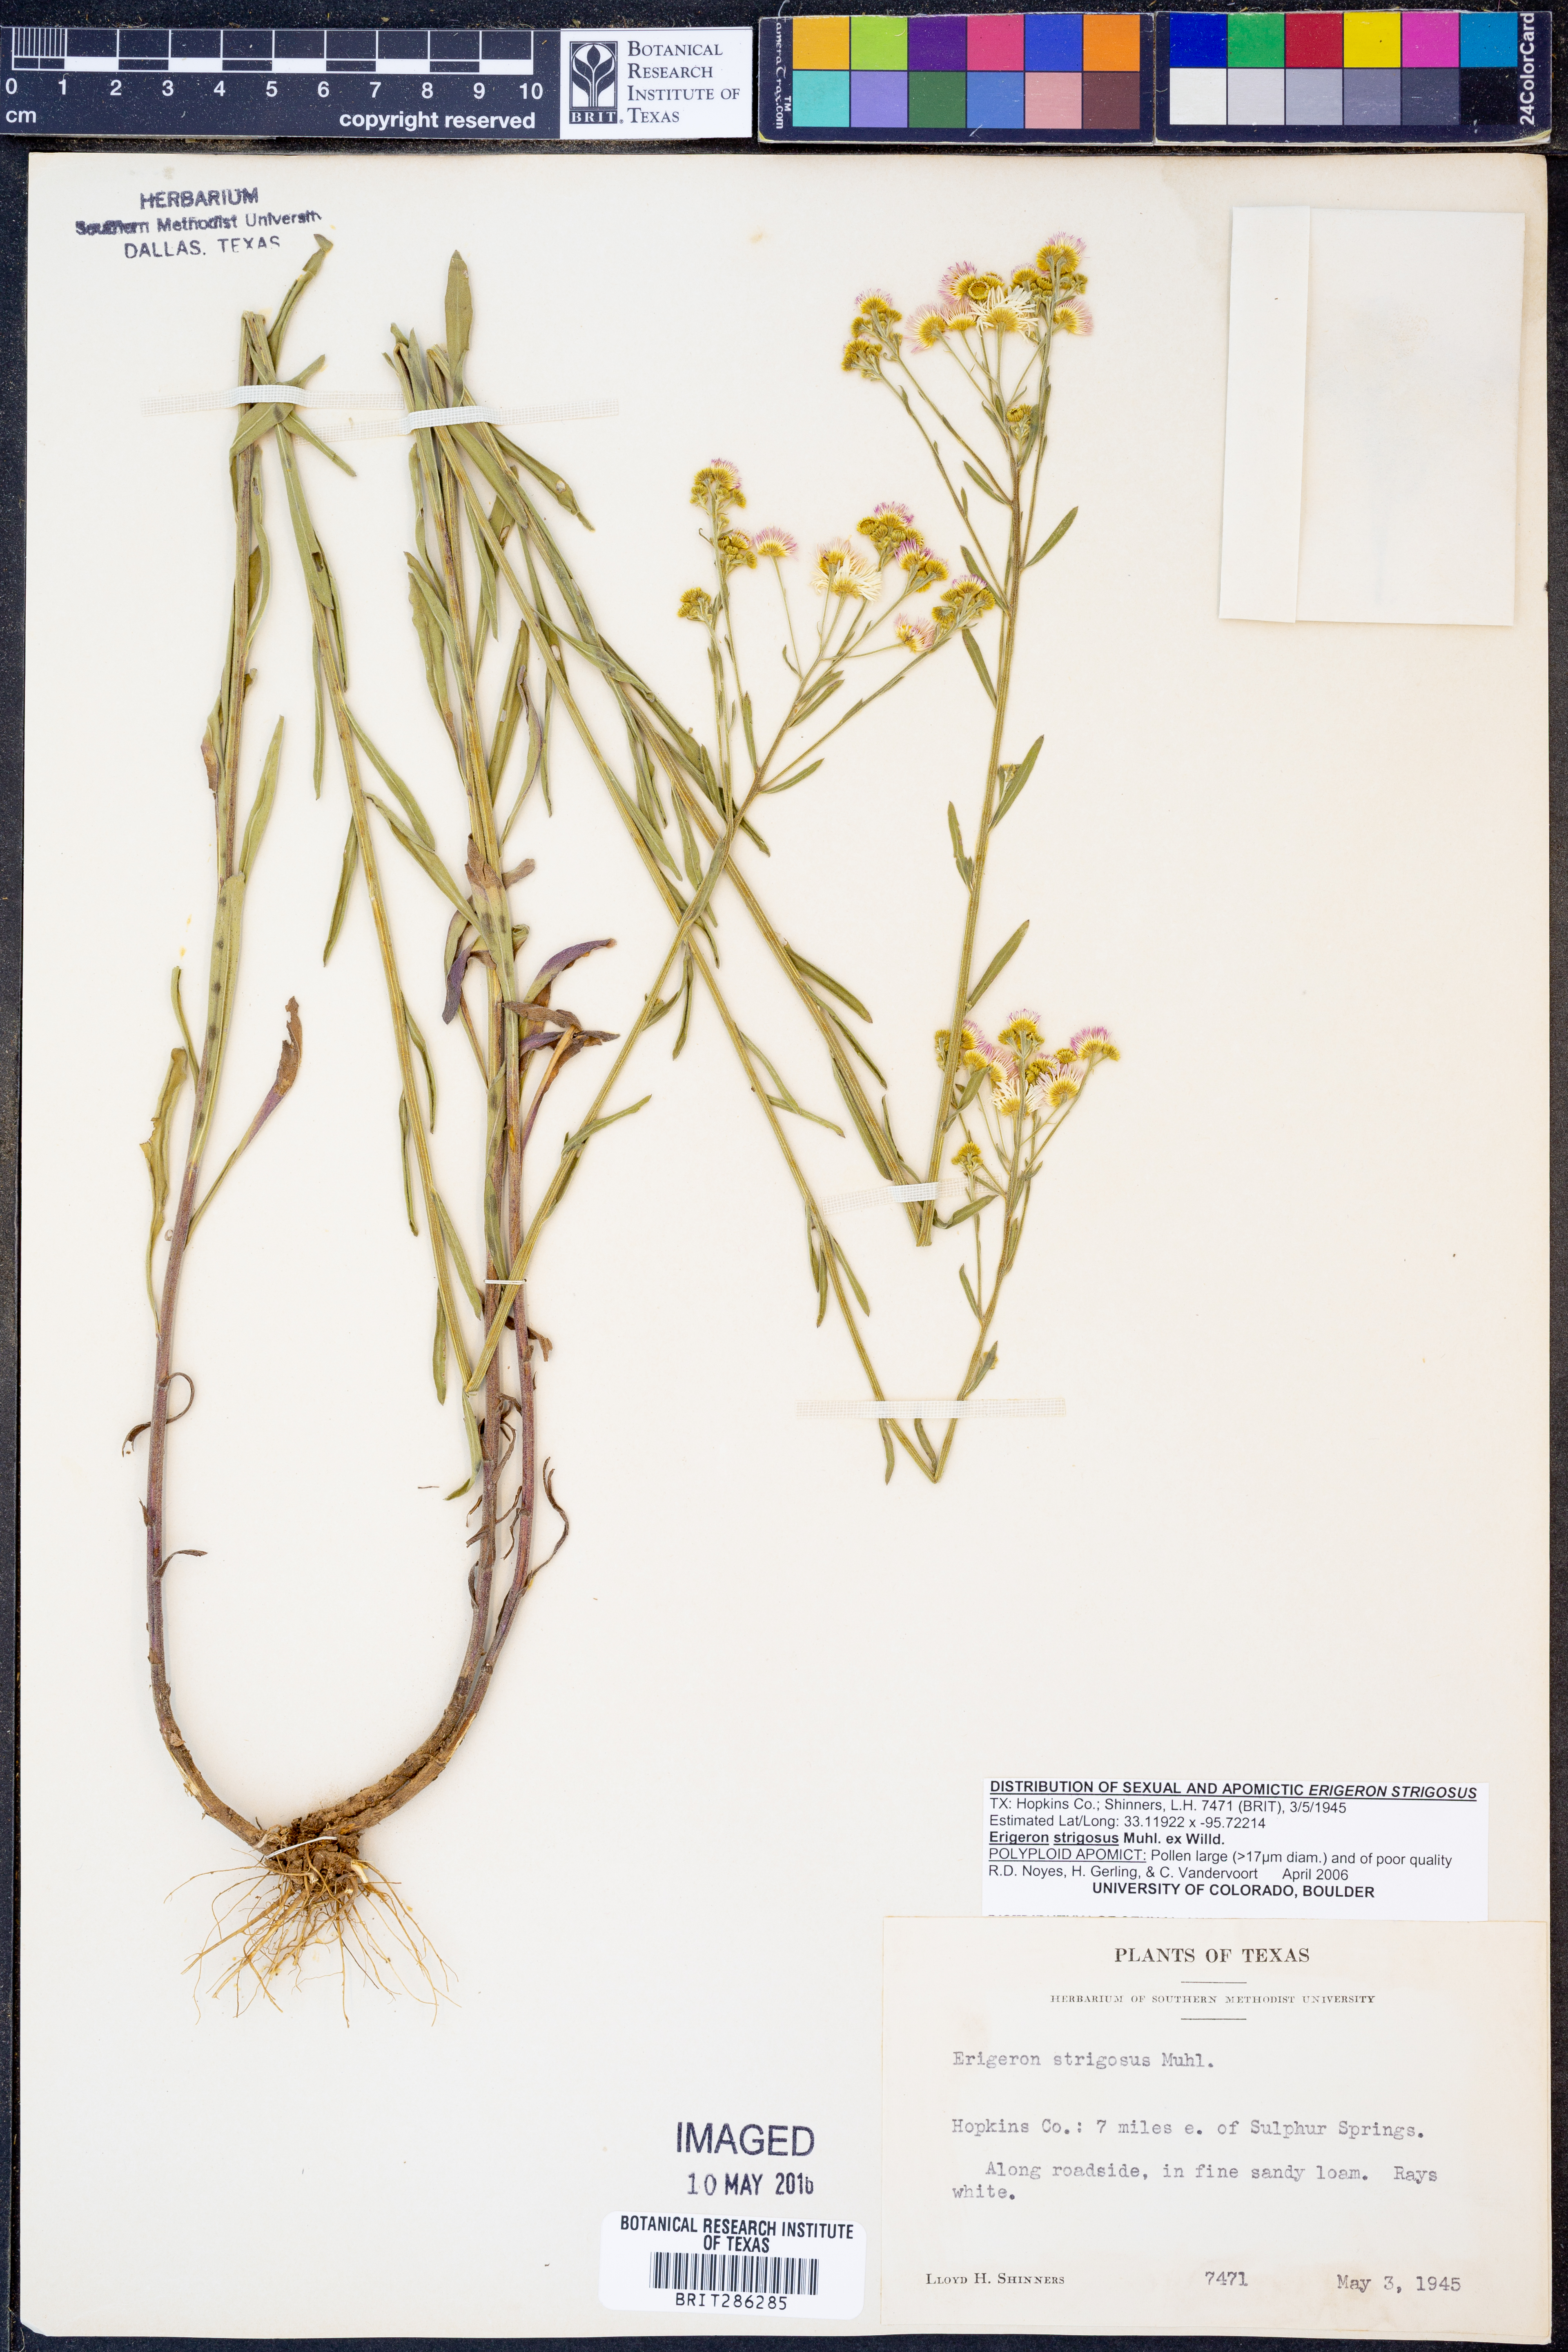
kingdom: Plantae
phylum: Tracheophyta
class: Magnoliopsida
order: Asterales
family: Asteraceae
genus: Erigeron
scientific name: Erigeron strigosus
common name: Common eastern fleabane
